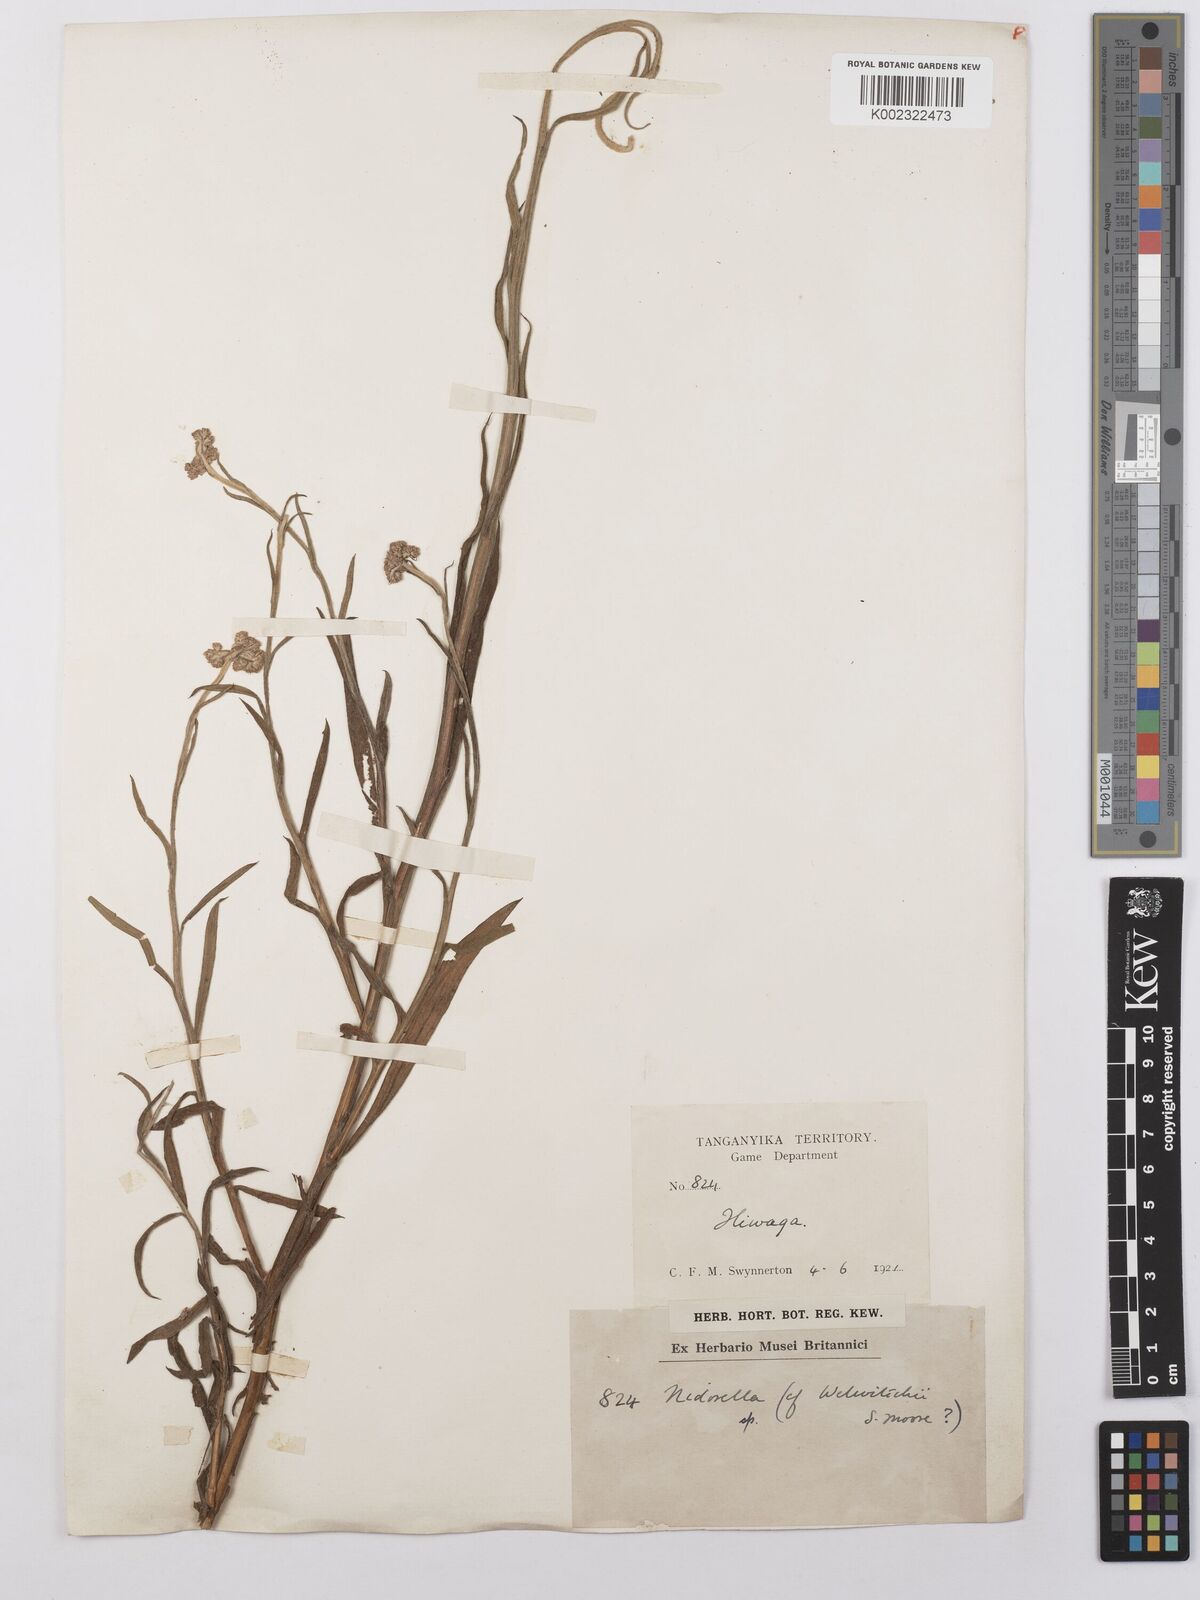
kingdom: Plantae
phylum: Tracheophyta
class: Magnoliopsida
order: Asterales
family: Asteraceae
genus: Helichrysum
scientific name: Helichrysum stenopterum
